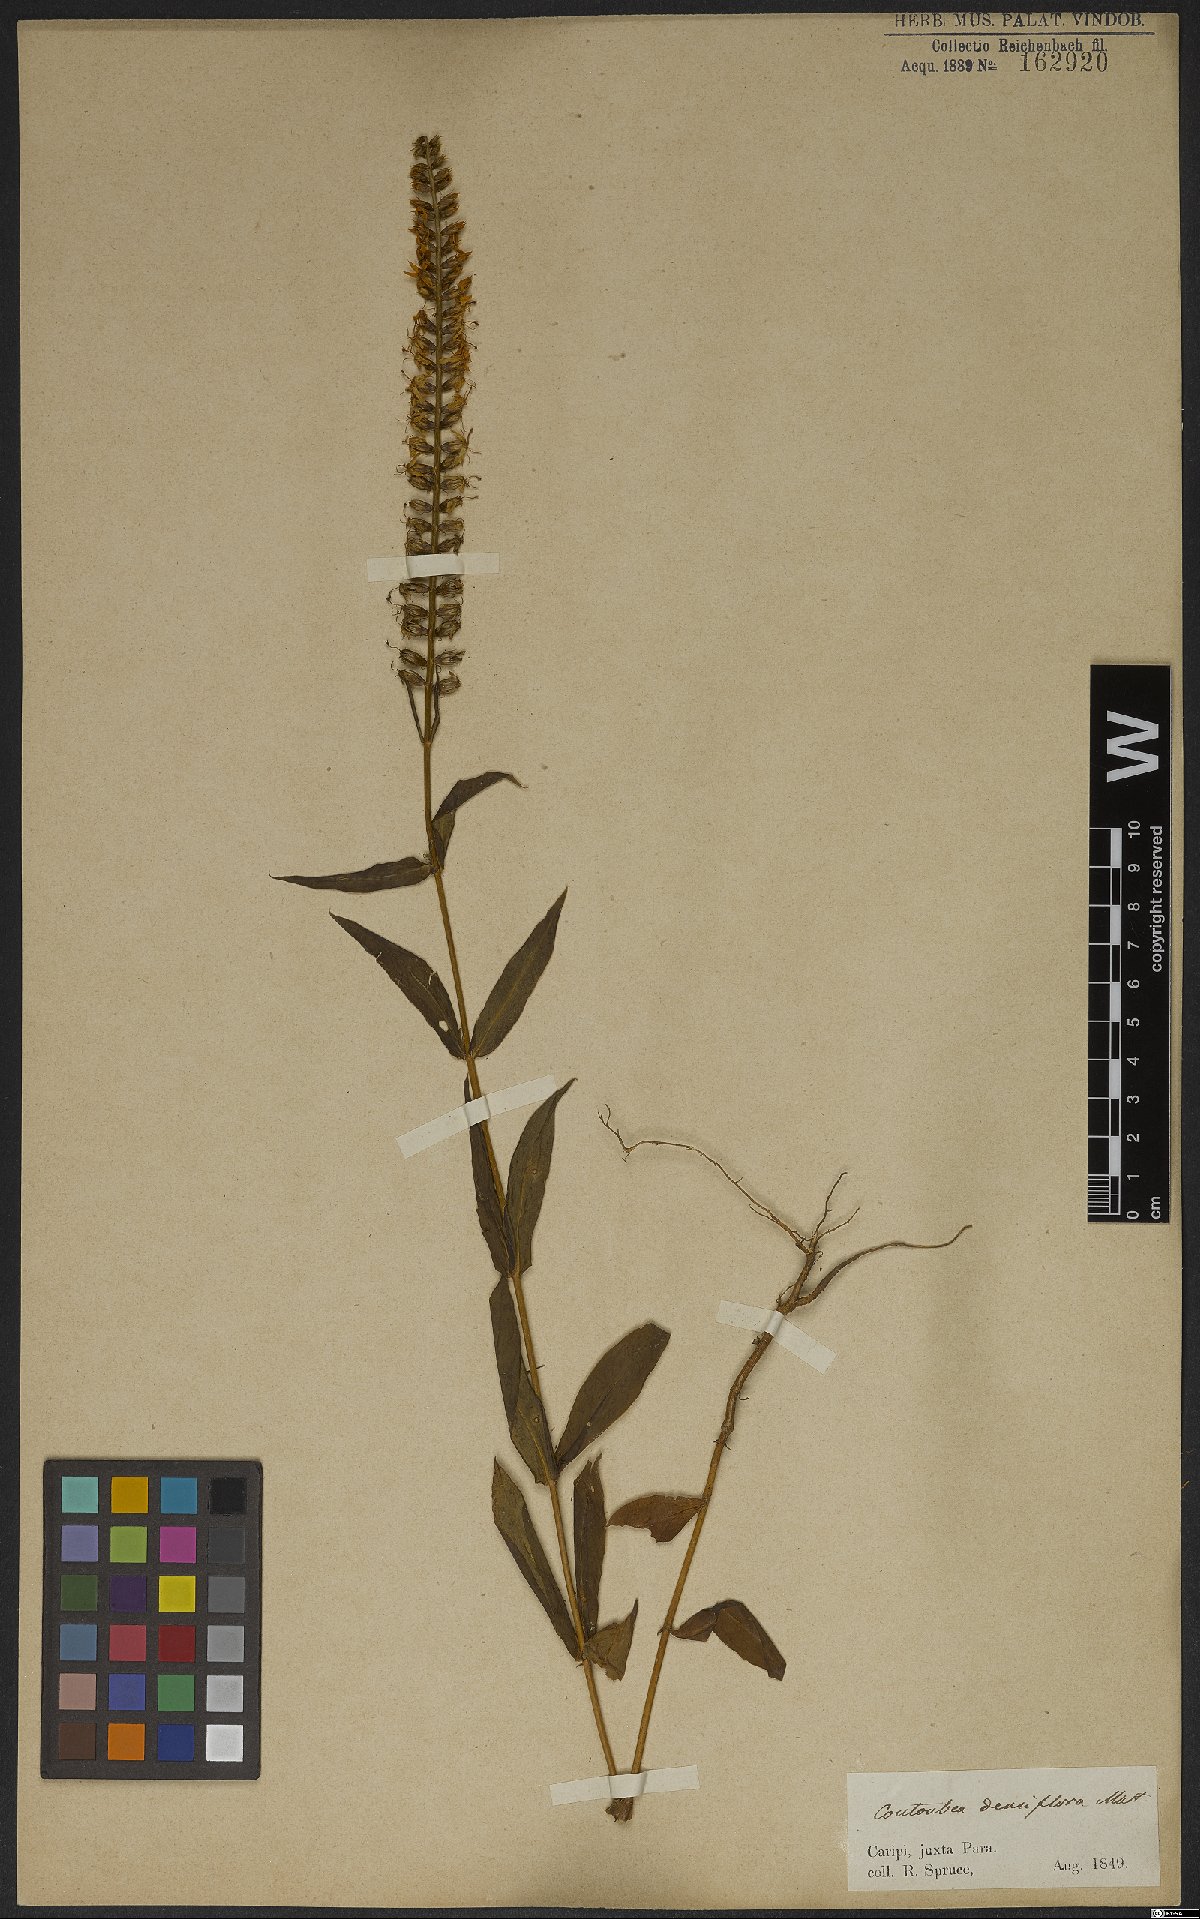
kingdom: Plantae
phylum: Tracheophyta
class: Magnoliopsida
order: Gentianales
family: Gentianaceae
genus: Coutoubea
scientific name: Coutoubea spicata
